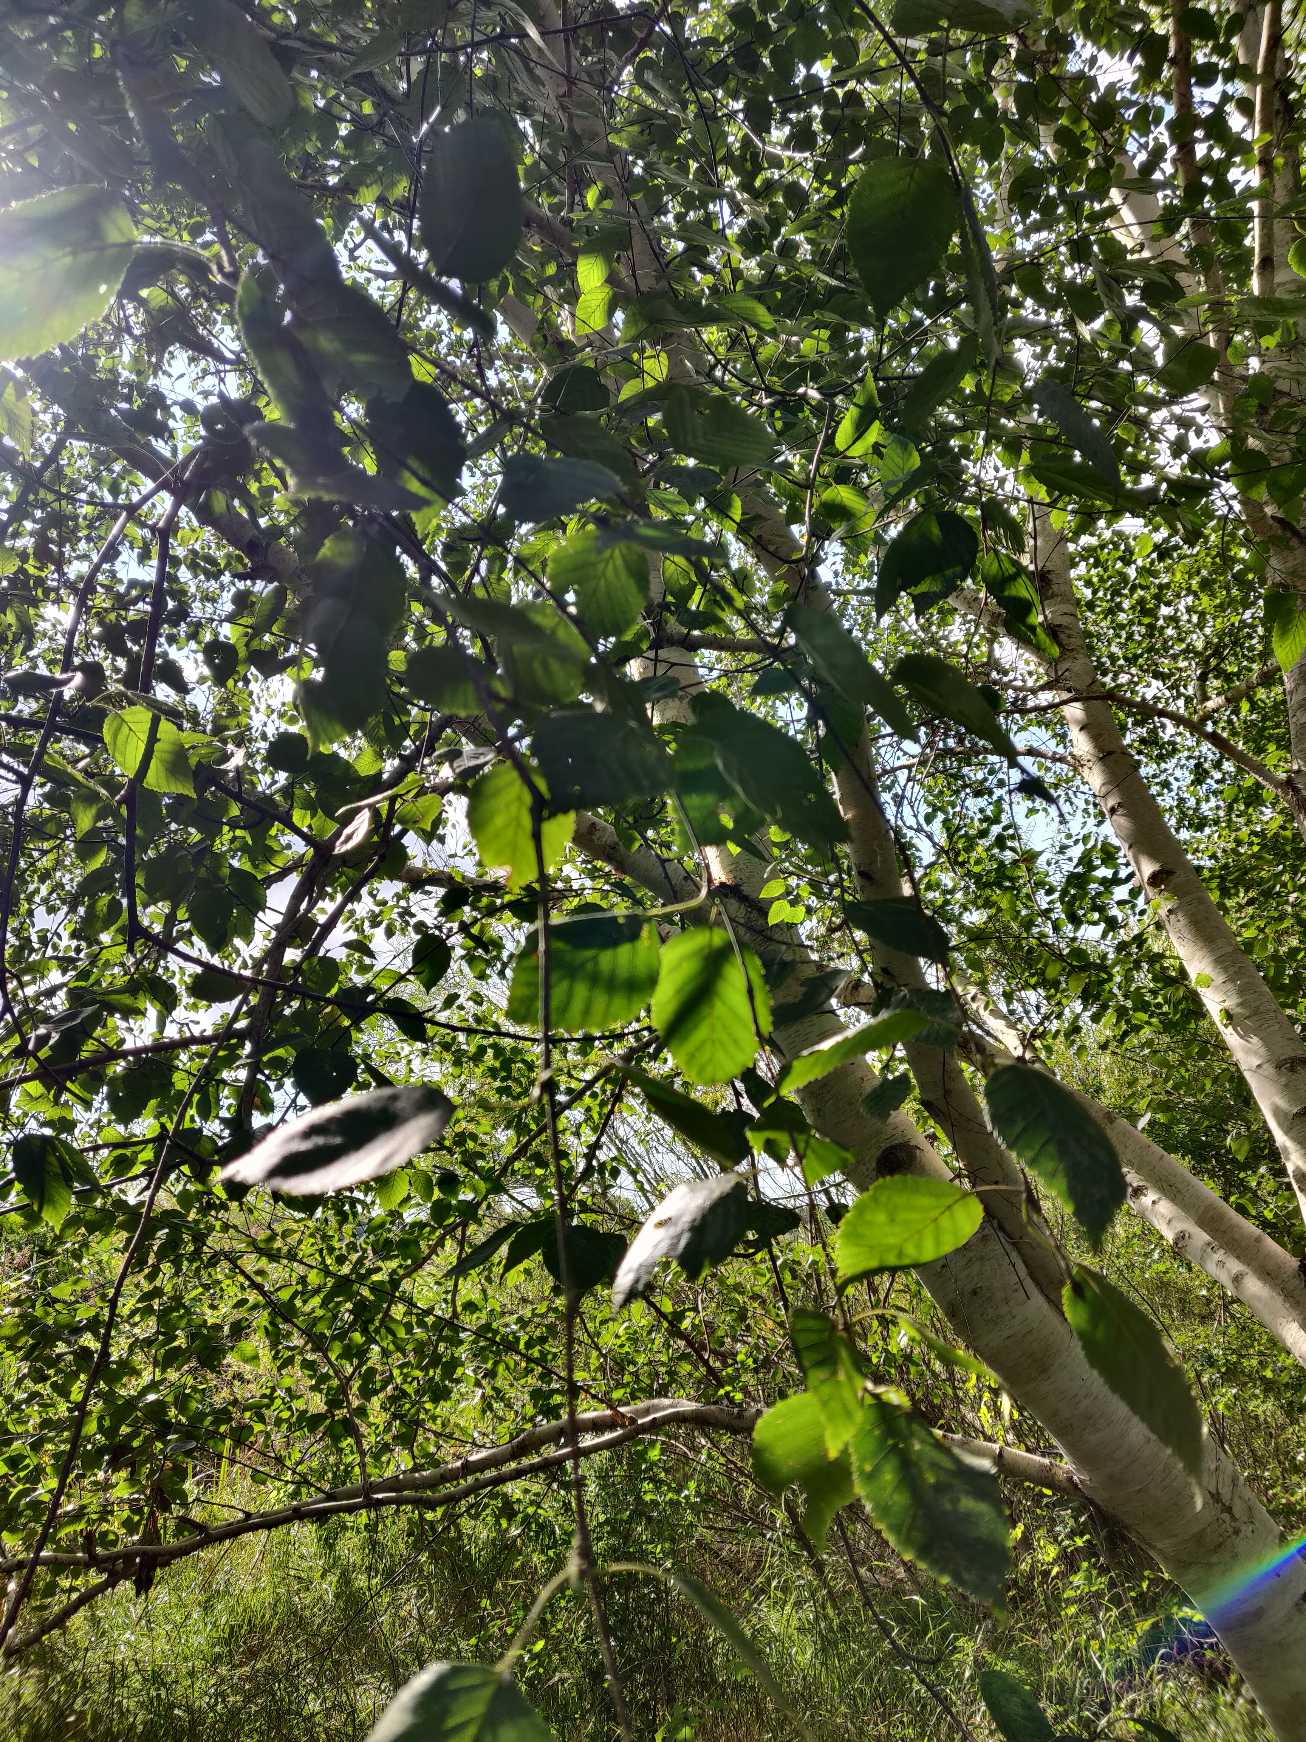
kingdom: Plantae
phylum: Tracheophyta
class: Magnoliopsida
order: Fagales
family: Betulaceae
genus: Betula
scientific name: Betula utilis
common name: Hvidbarket himalaya-birk
